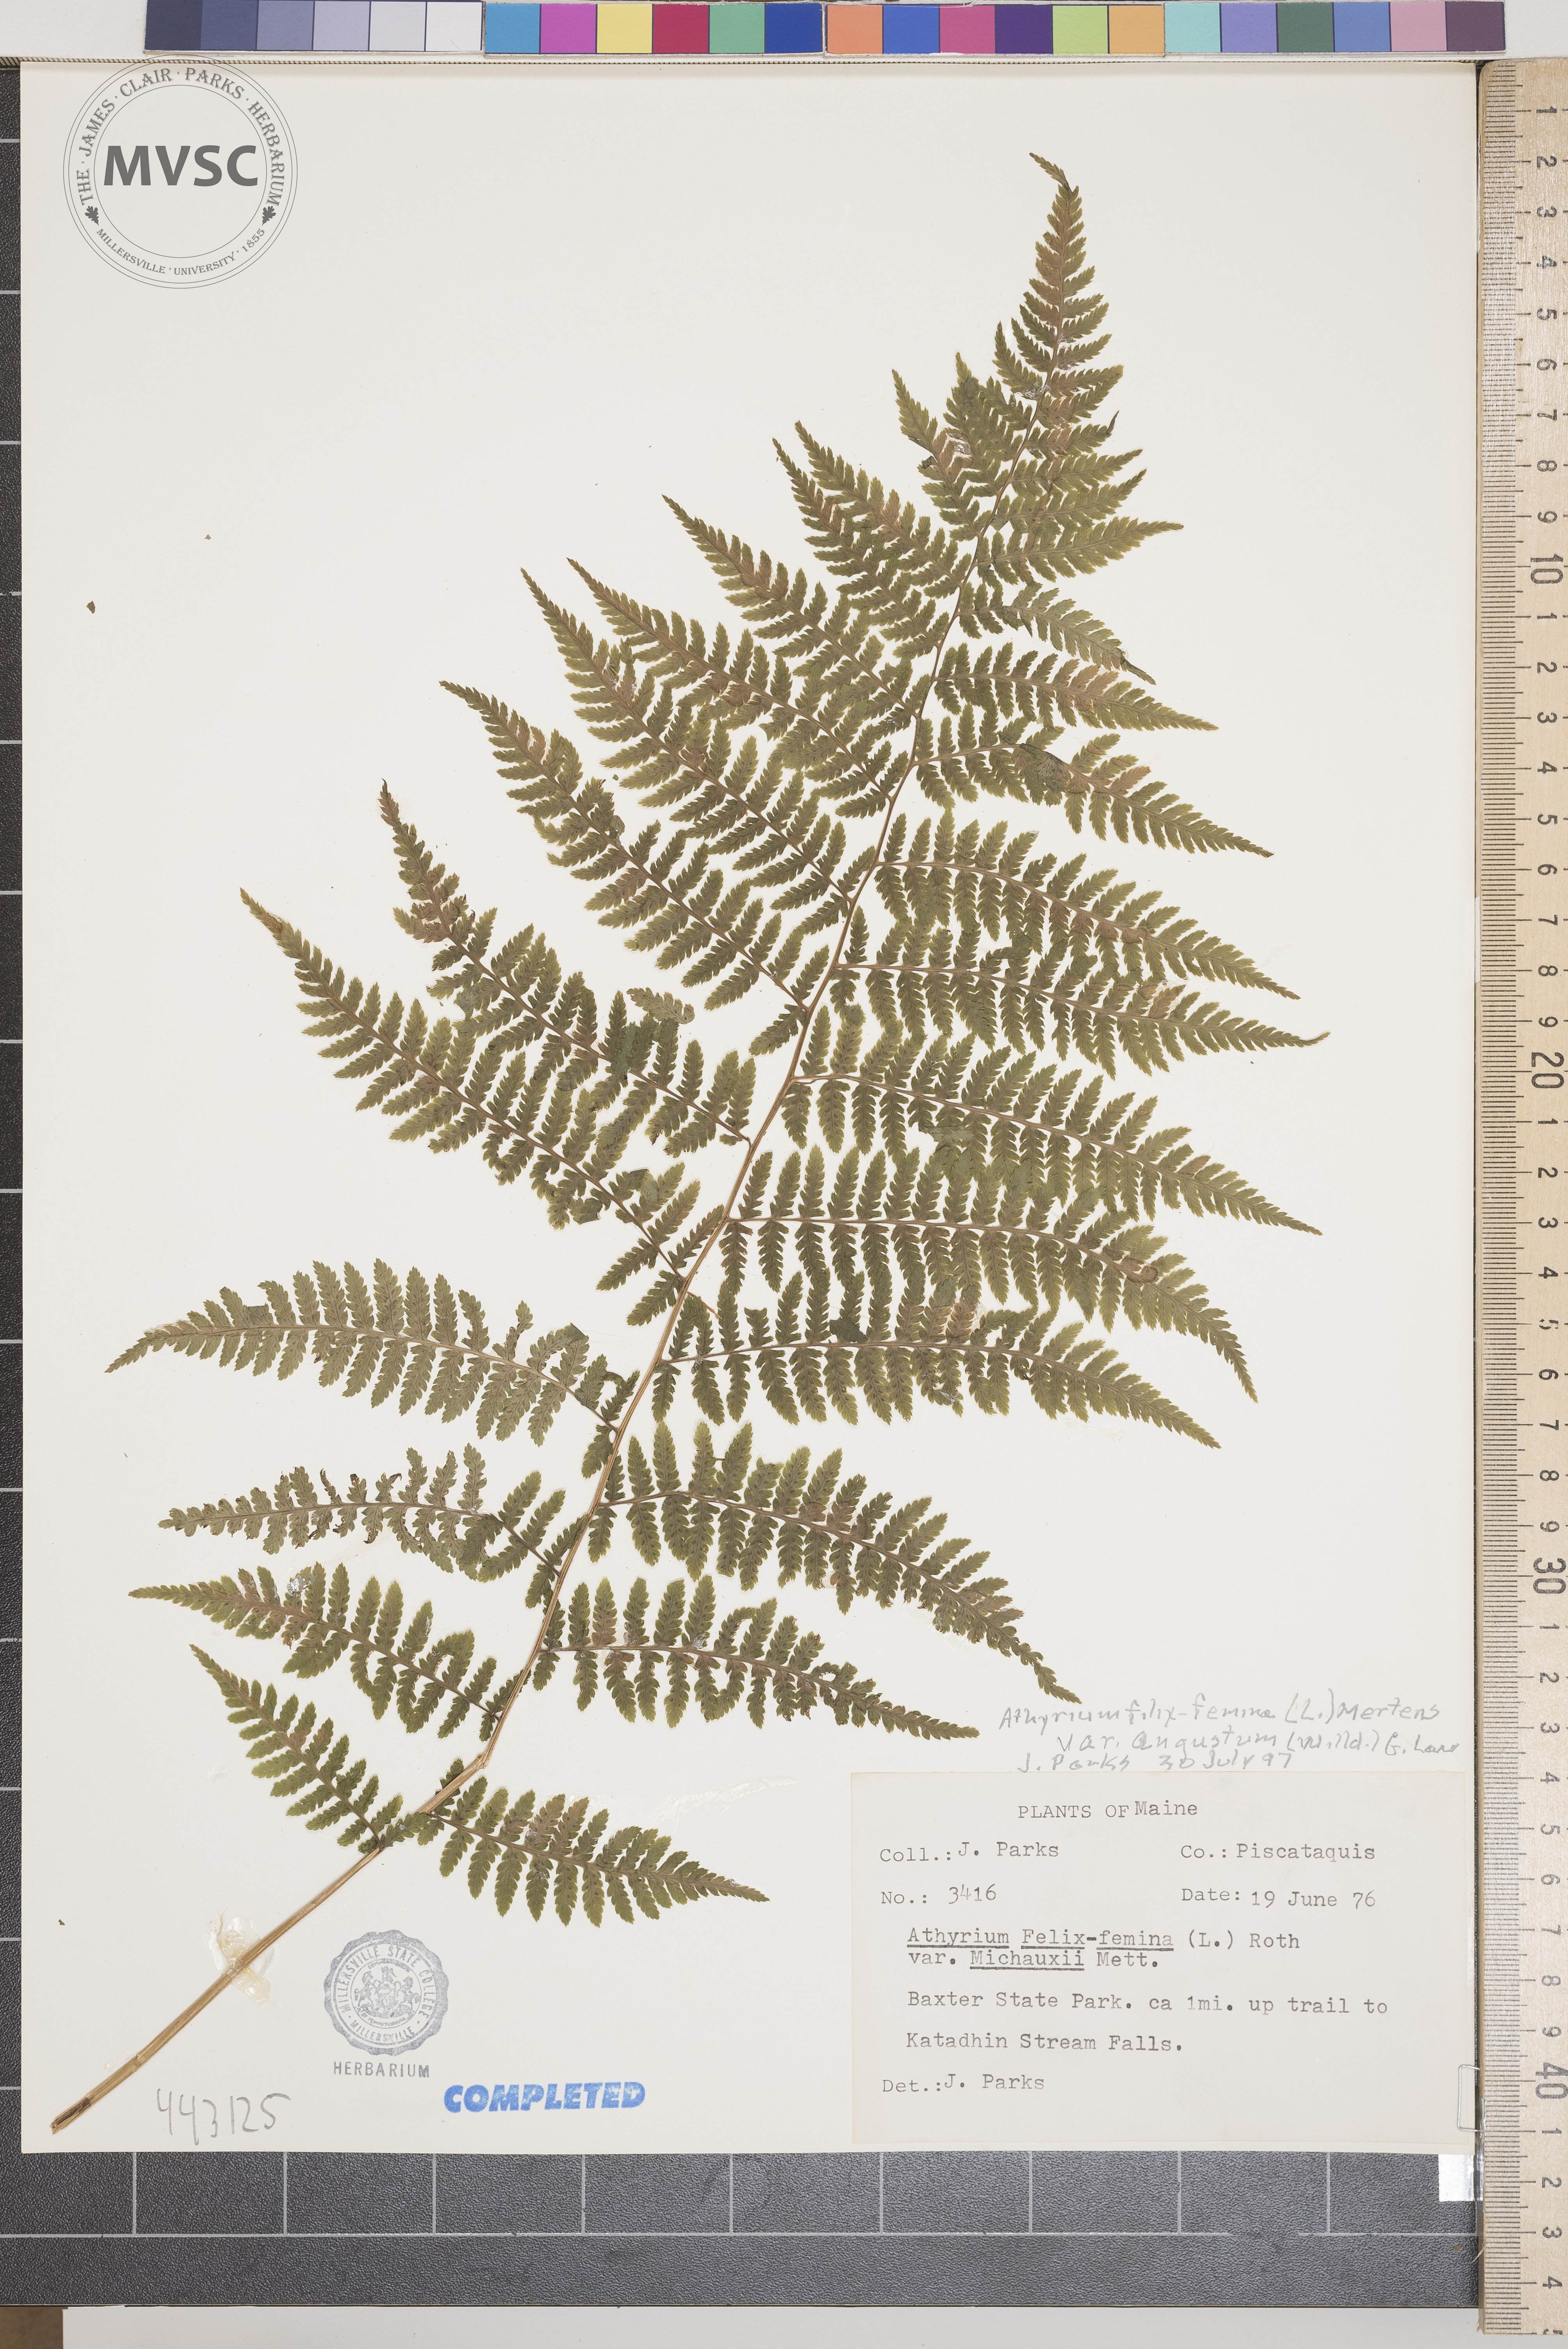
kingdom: Plantae
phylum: Tracheophyta
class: Polypodiopsida
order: Polypodiales
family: Athyriaceae
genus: Athyrium
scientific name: Athyrium filix-femina
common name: Lady fern
